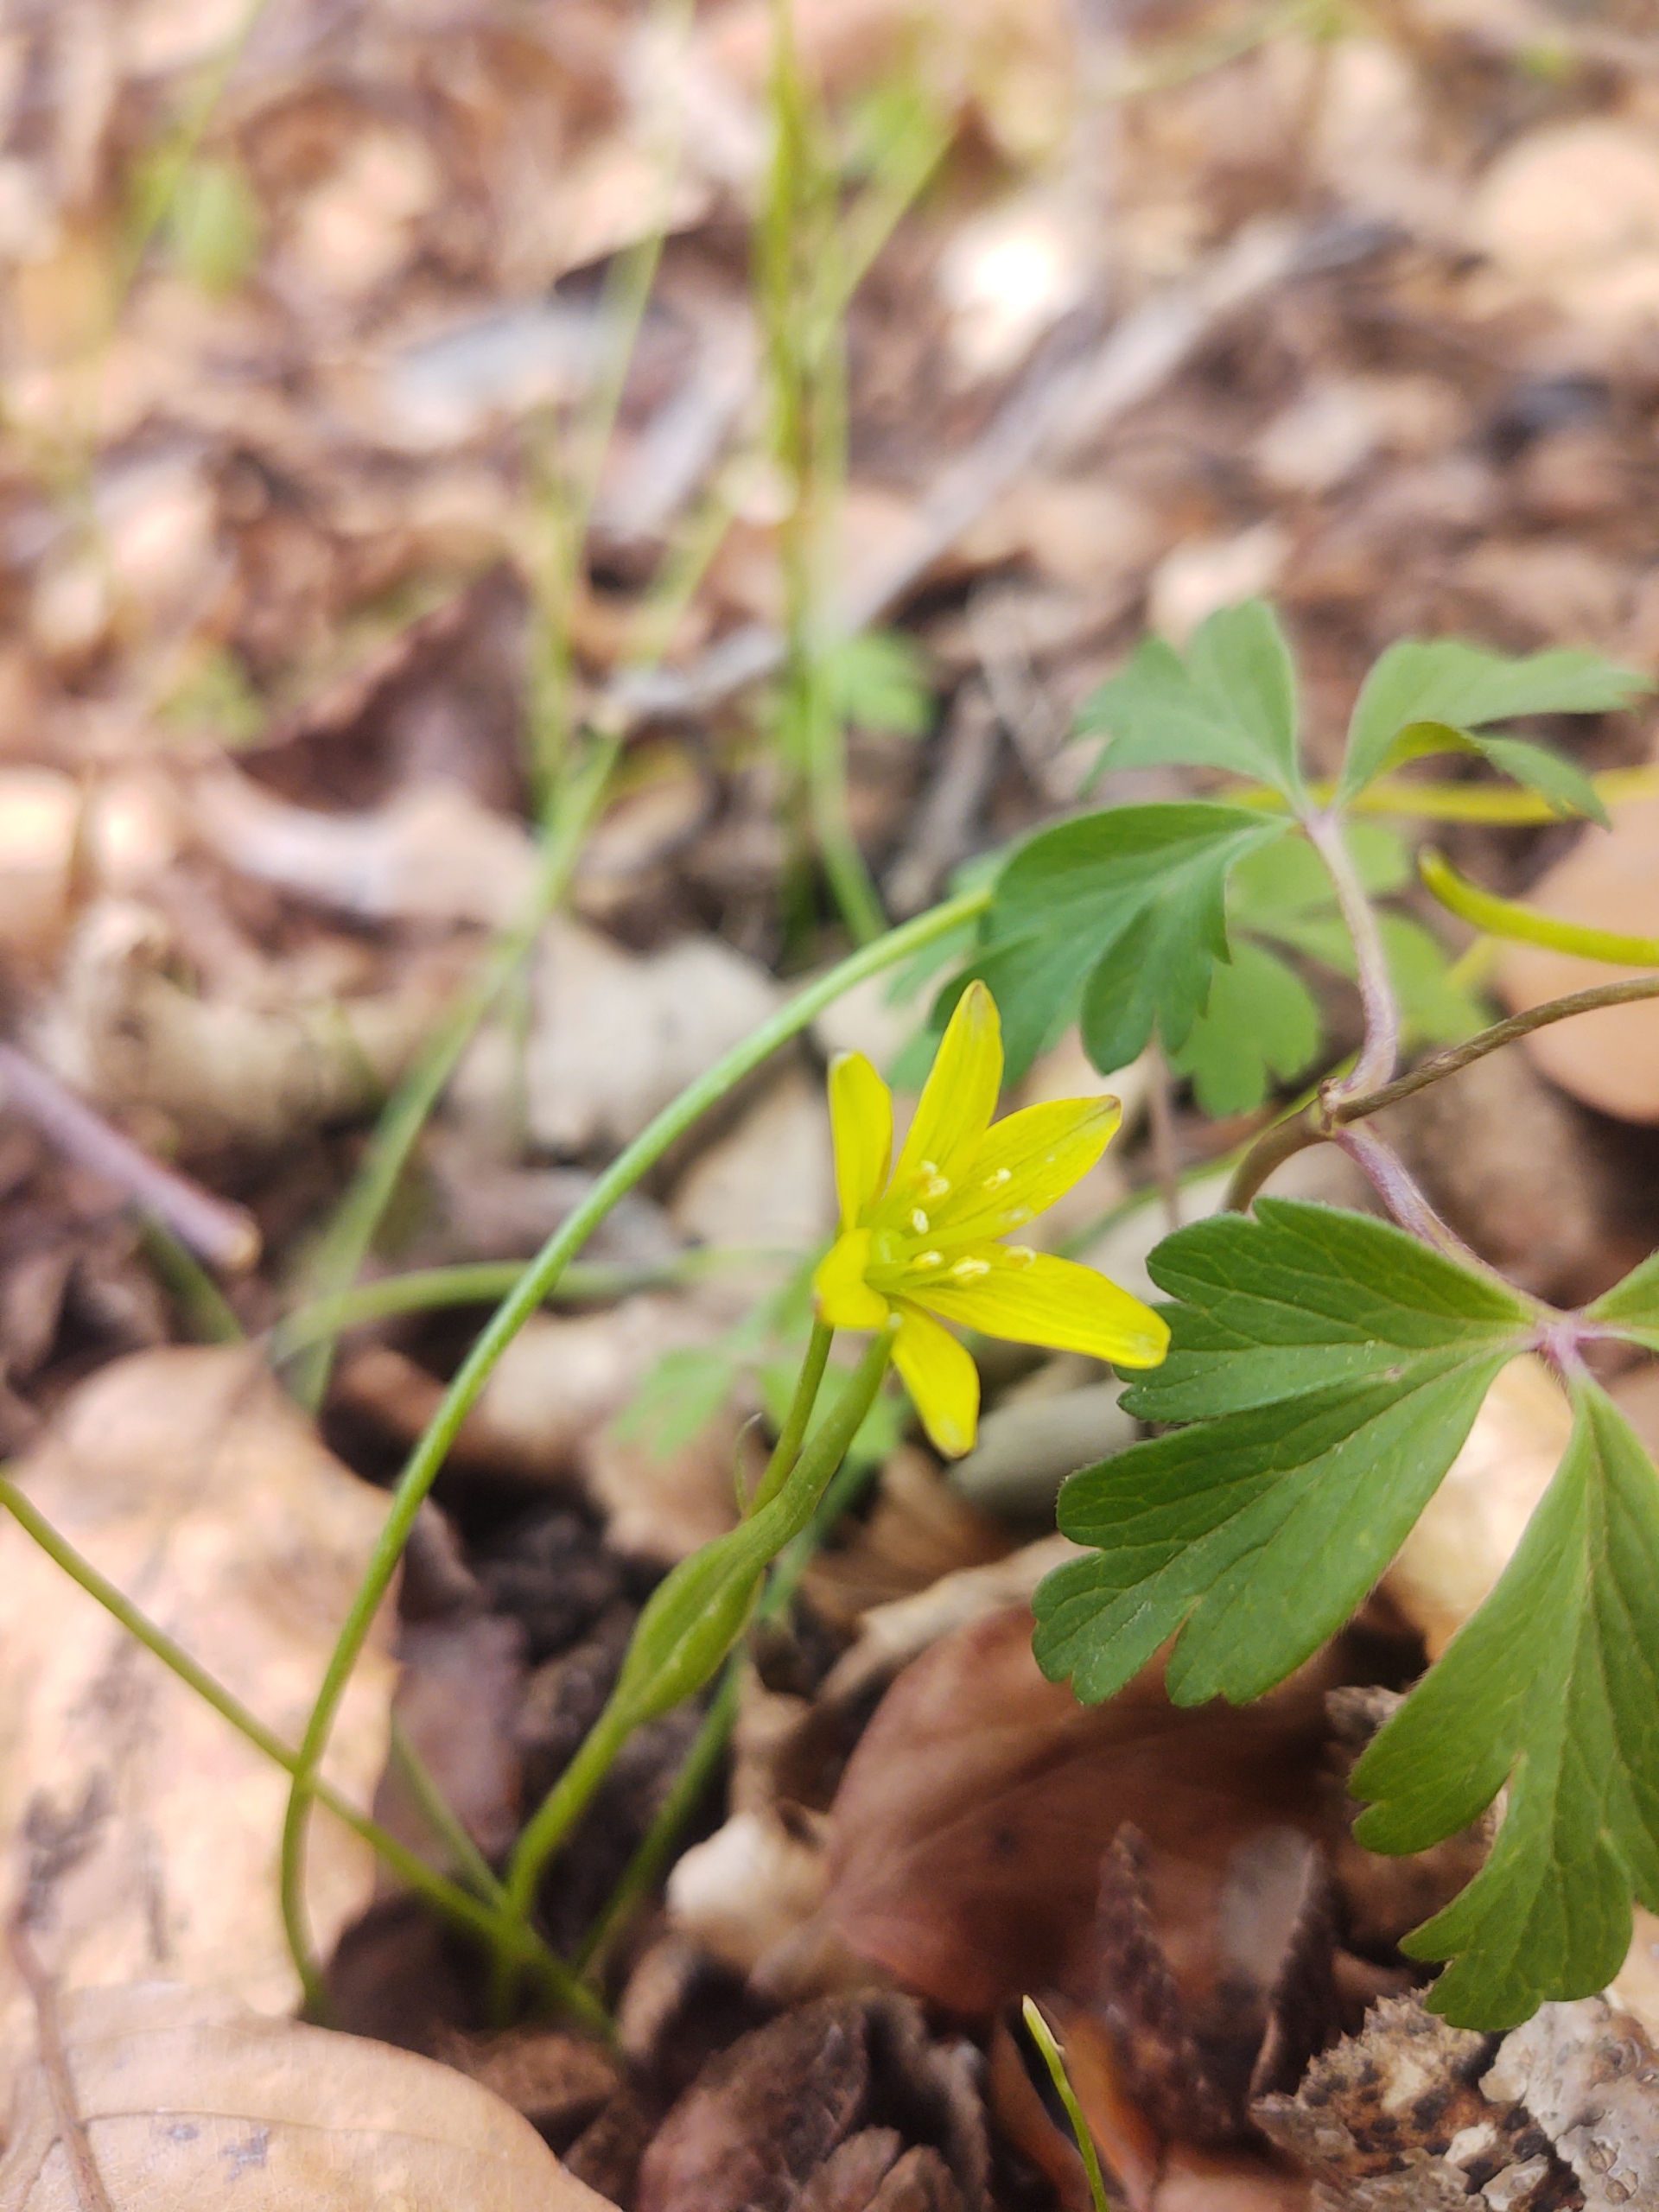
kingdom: Plantae
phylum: Tracheophyta
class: Liliopsida
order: Liliales
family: Liliaceae
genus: Gagea
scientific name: Gagea spathacea
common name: Hylster-guldstjerne
